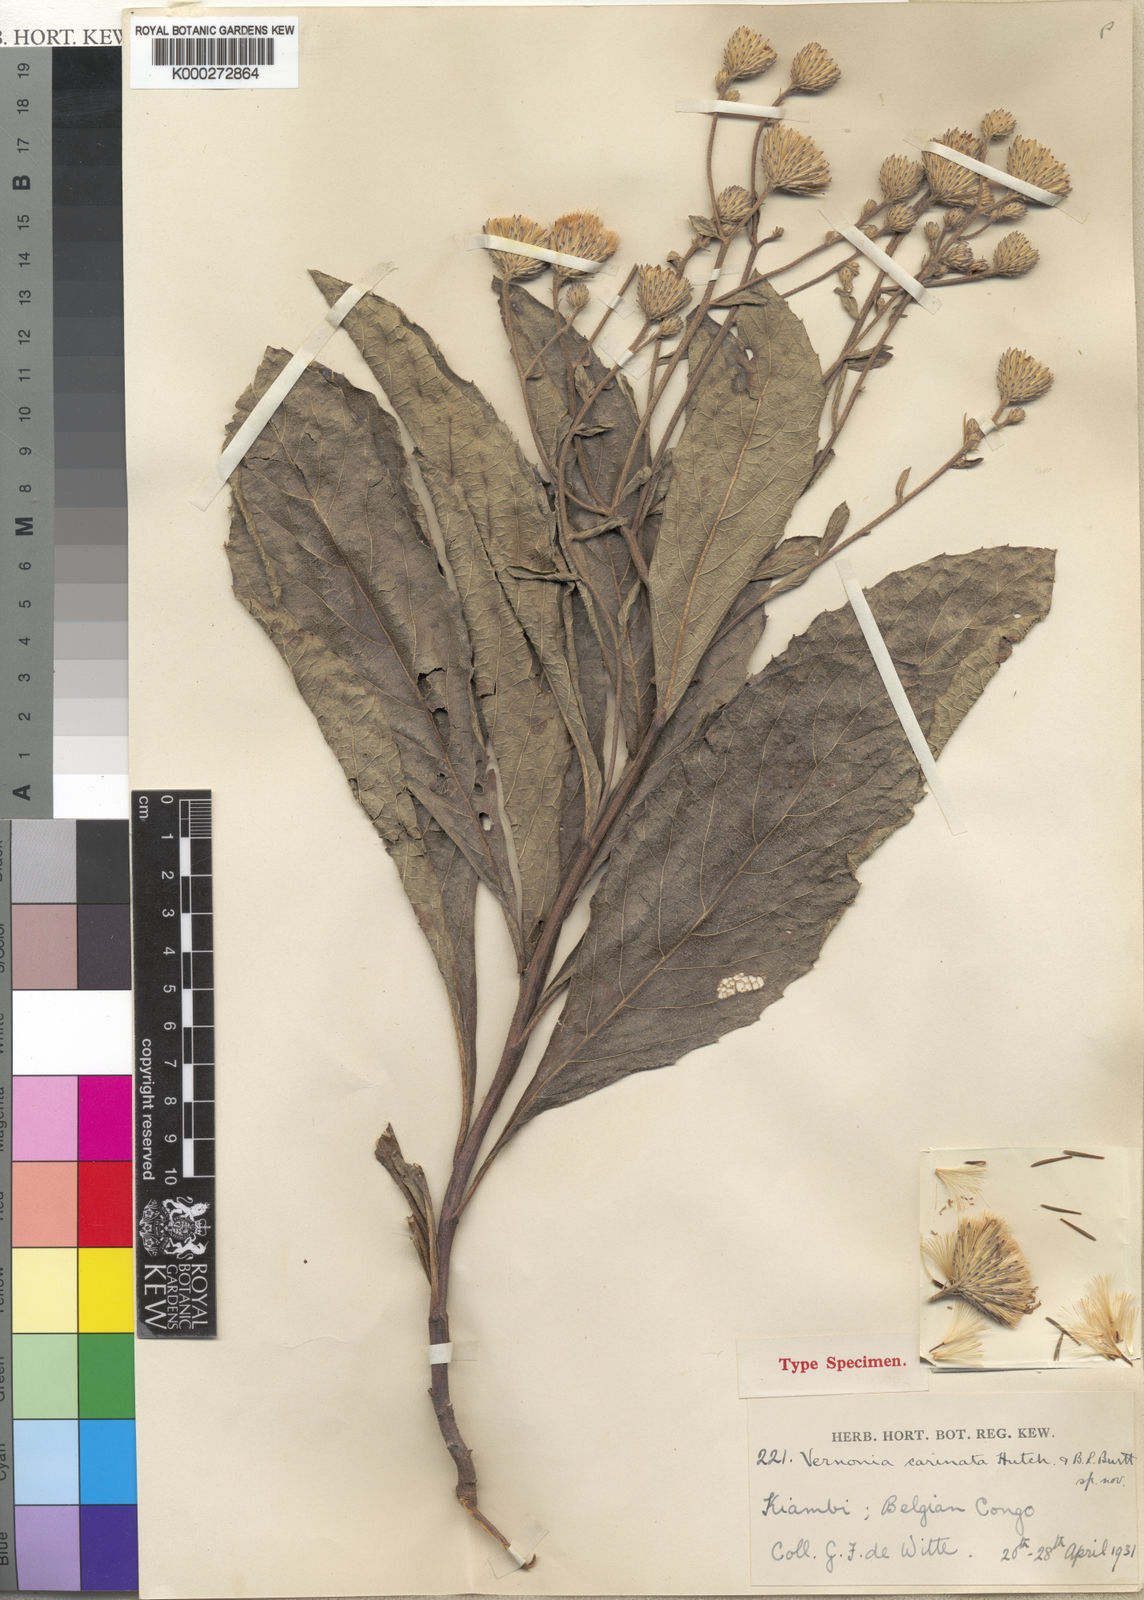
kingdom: Plantae
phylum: Tracheophyta
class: Magnoliopsida
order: Asterales
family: Asteraceae
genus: Vernonia
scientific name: Vernonia calulu
